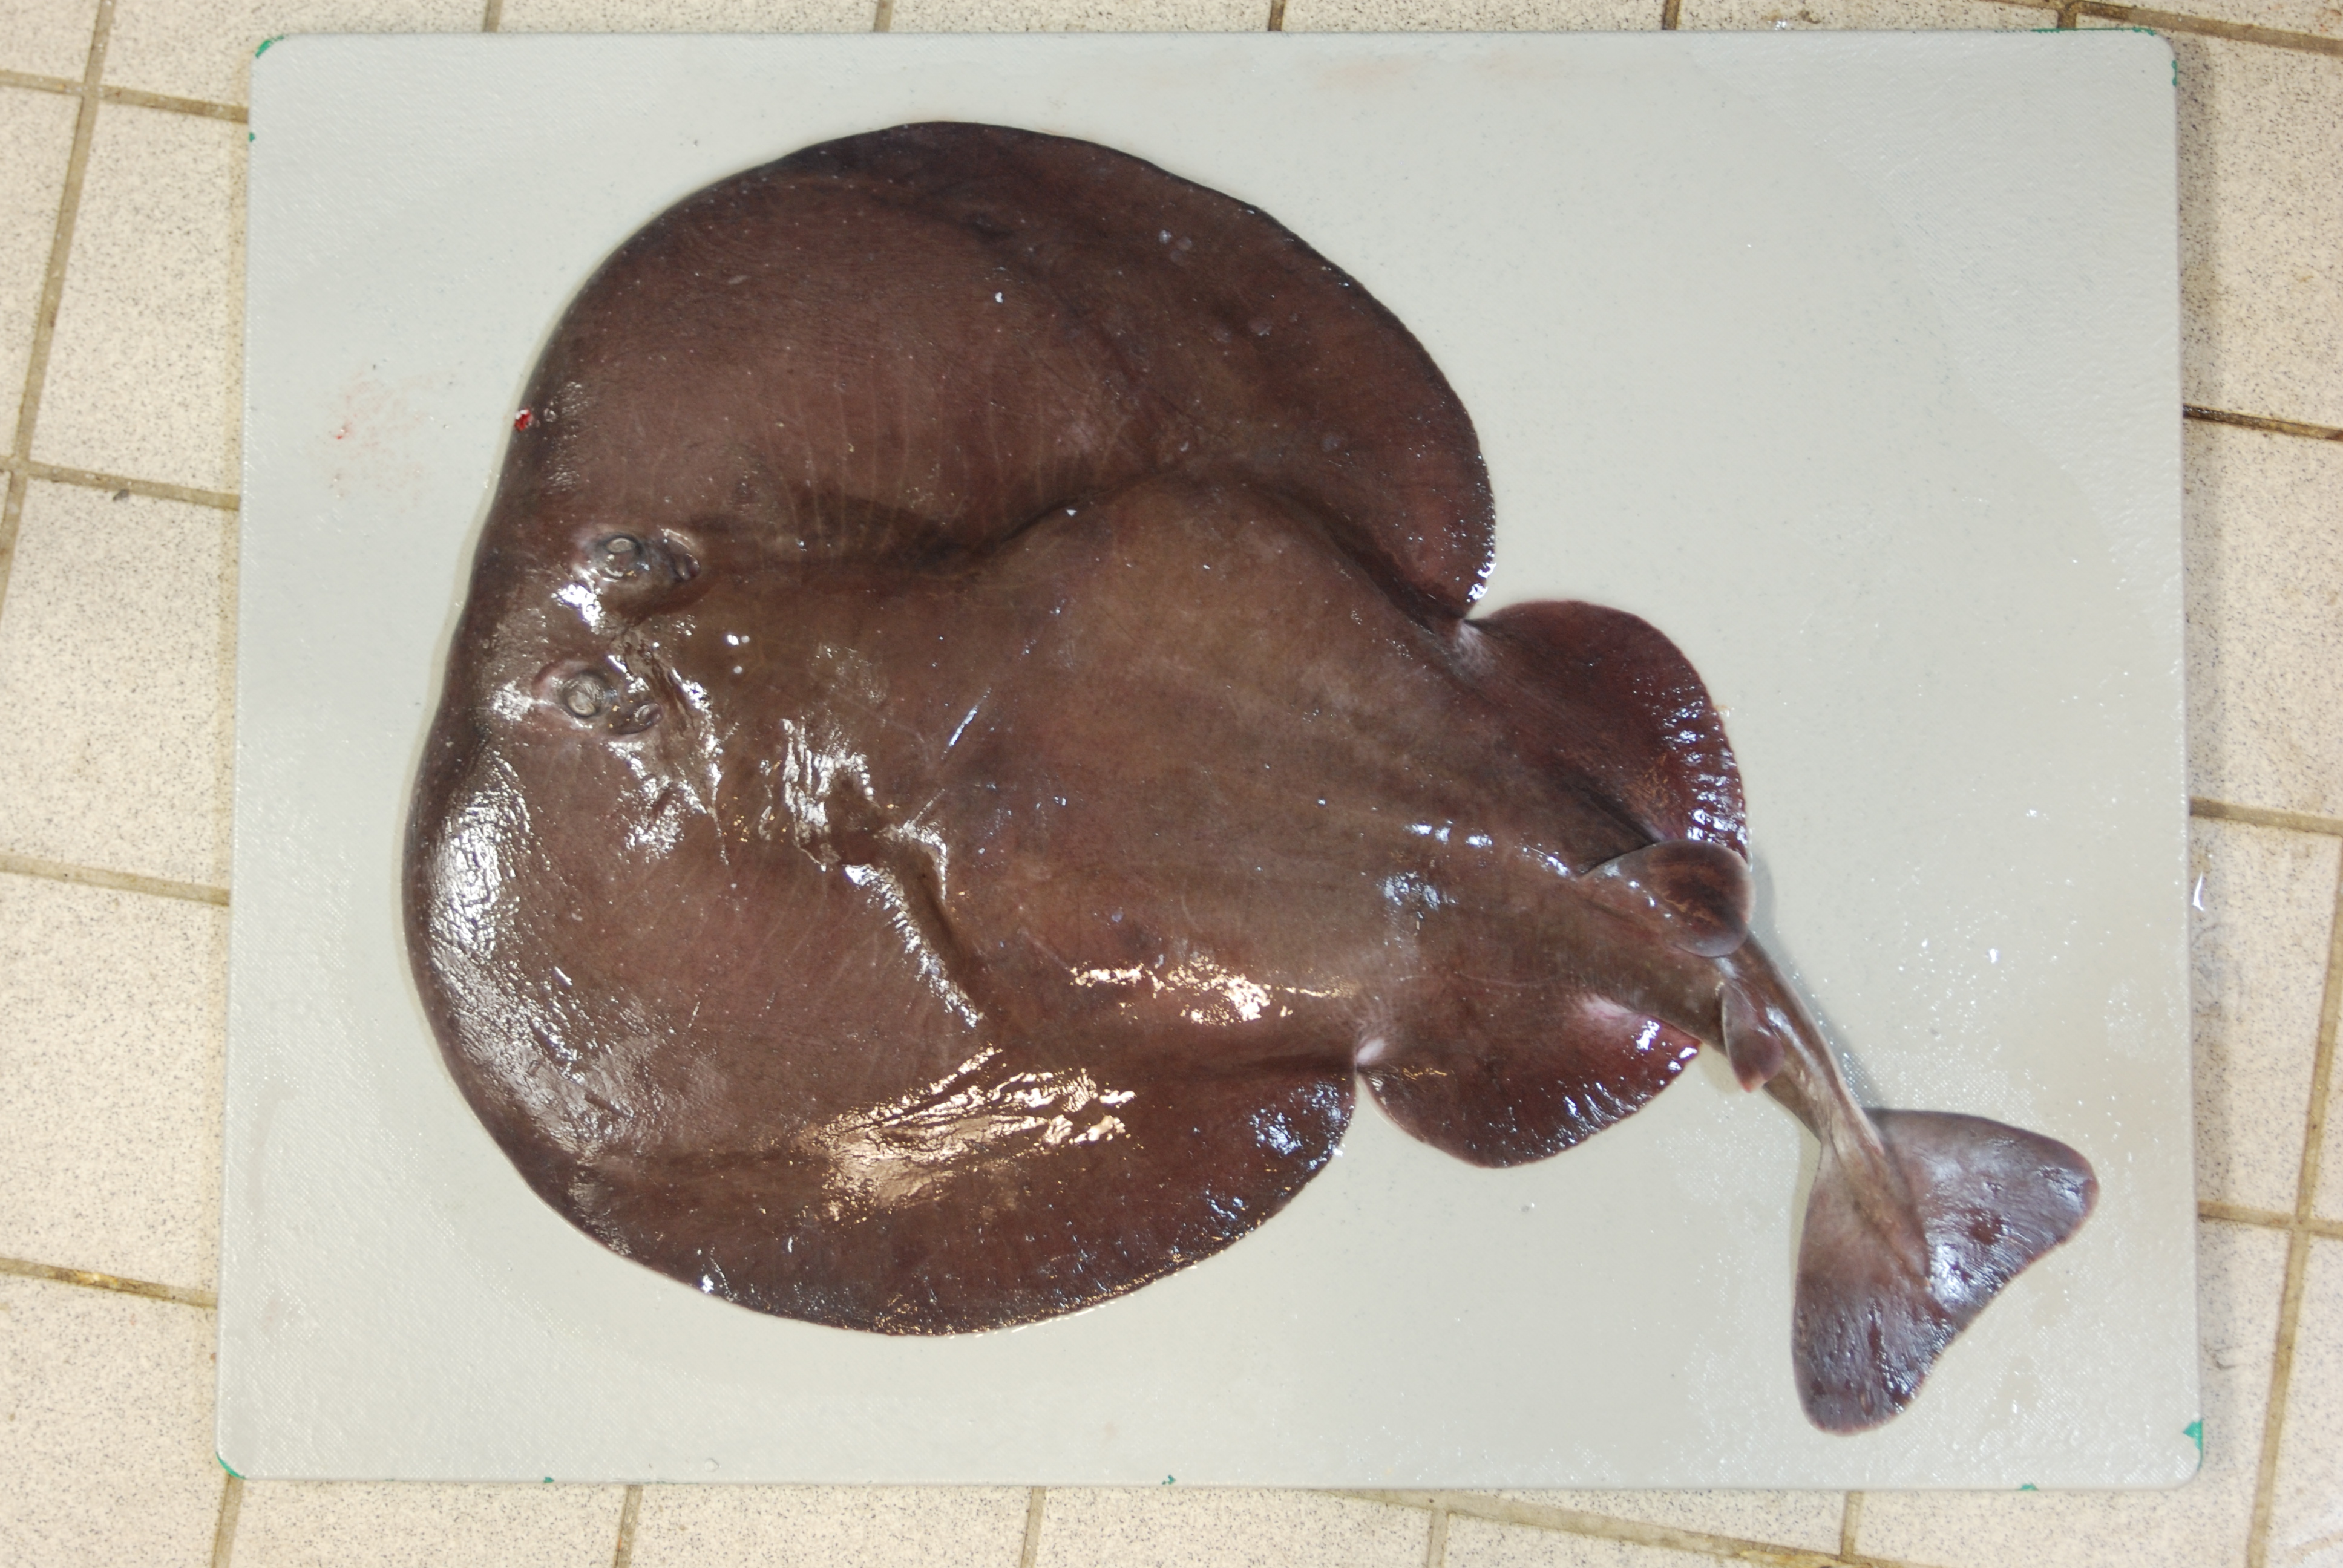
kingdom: Animalia
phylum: Chordata
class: Elasmobranchii
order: Torpediniformes
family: Torpedinidae
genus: Tetronarce
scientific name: Tetronarce nobiliana
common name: Electric ray
